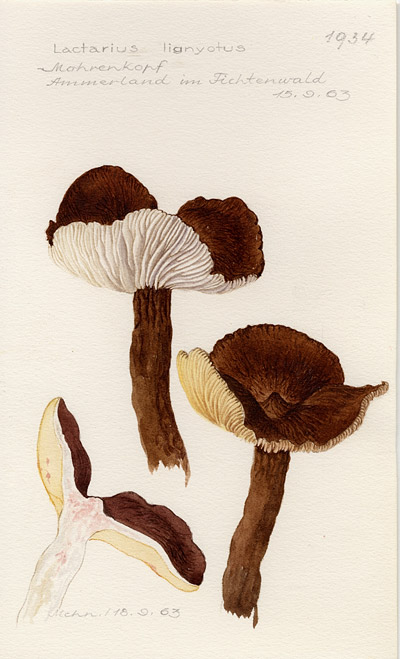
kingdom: Fungi
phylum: Basidiomycota
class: Agaricomycetes
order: Russulales
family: Russulaceae
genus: Lactarius
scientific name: Lactarius lignyotus
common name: Velvet milkcap
